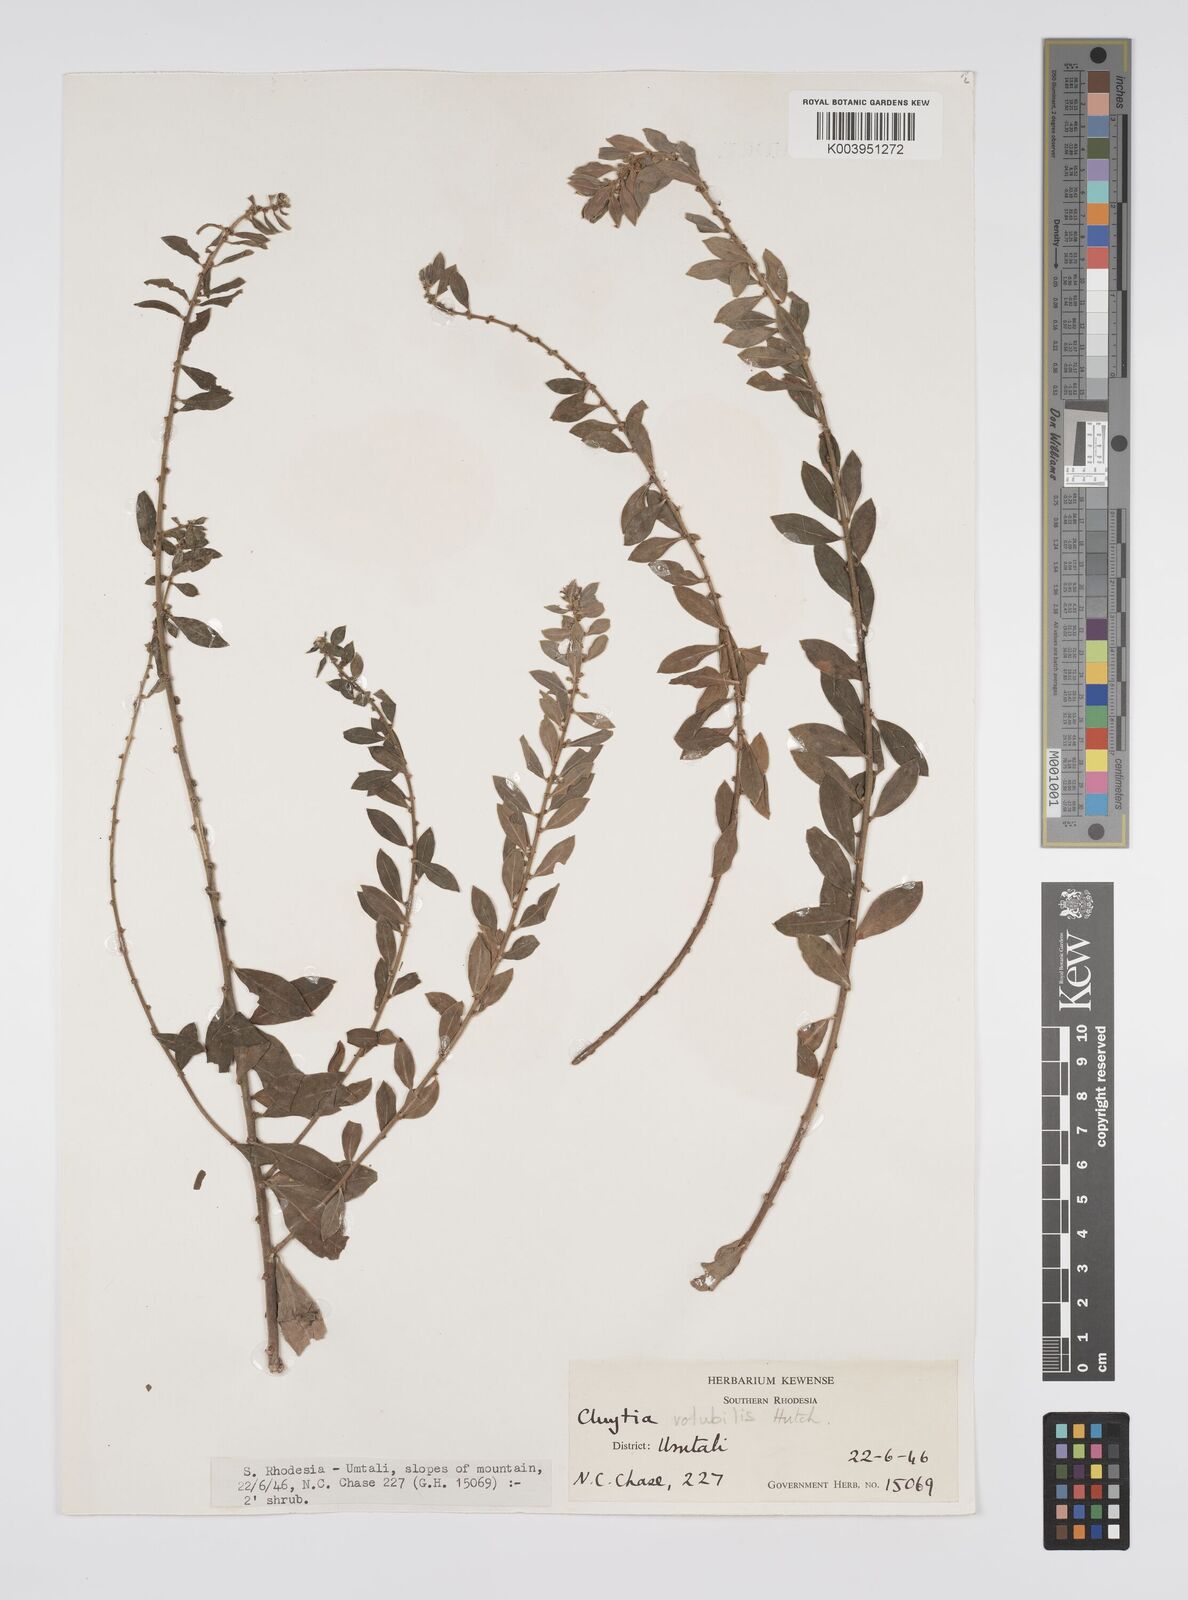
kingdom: Plantae
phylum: Tracheophyta
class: Magnoliopsida
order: Malpighiales
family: Peraceae
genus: Clutia
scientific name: Clutia
